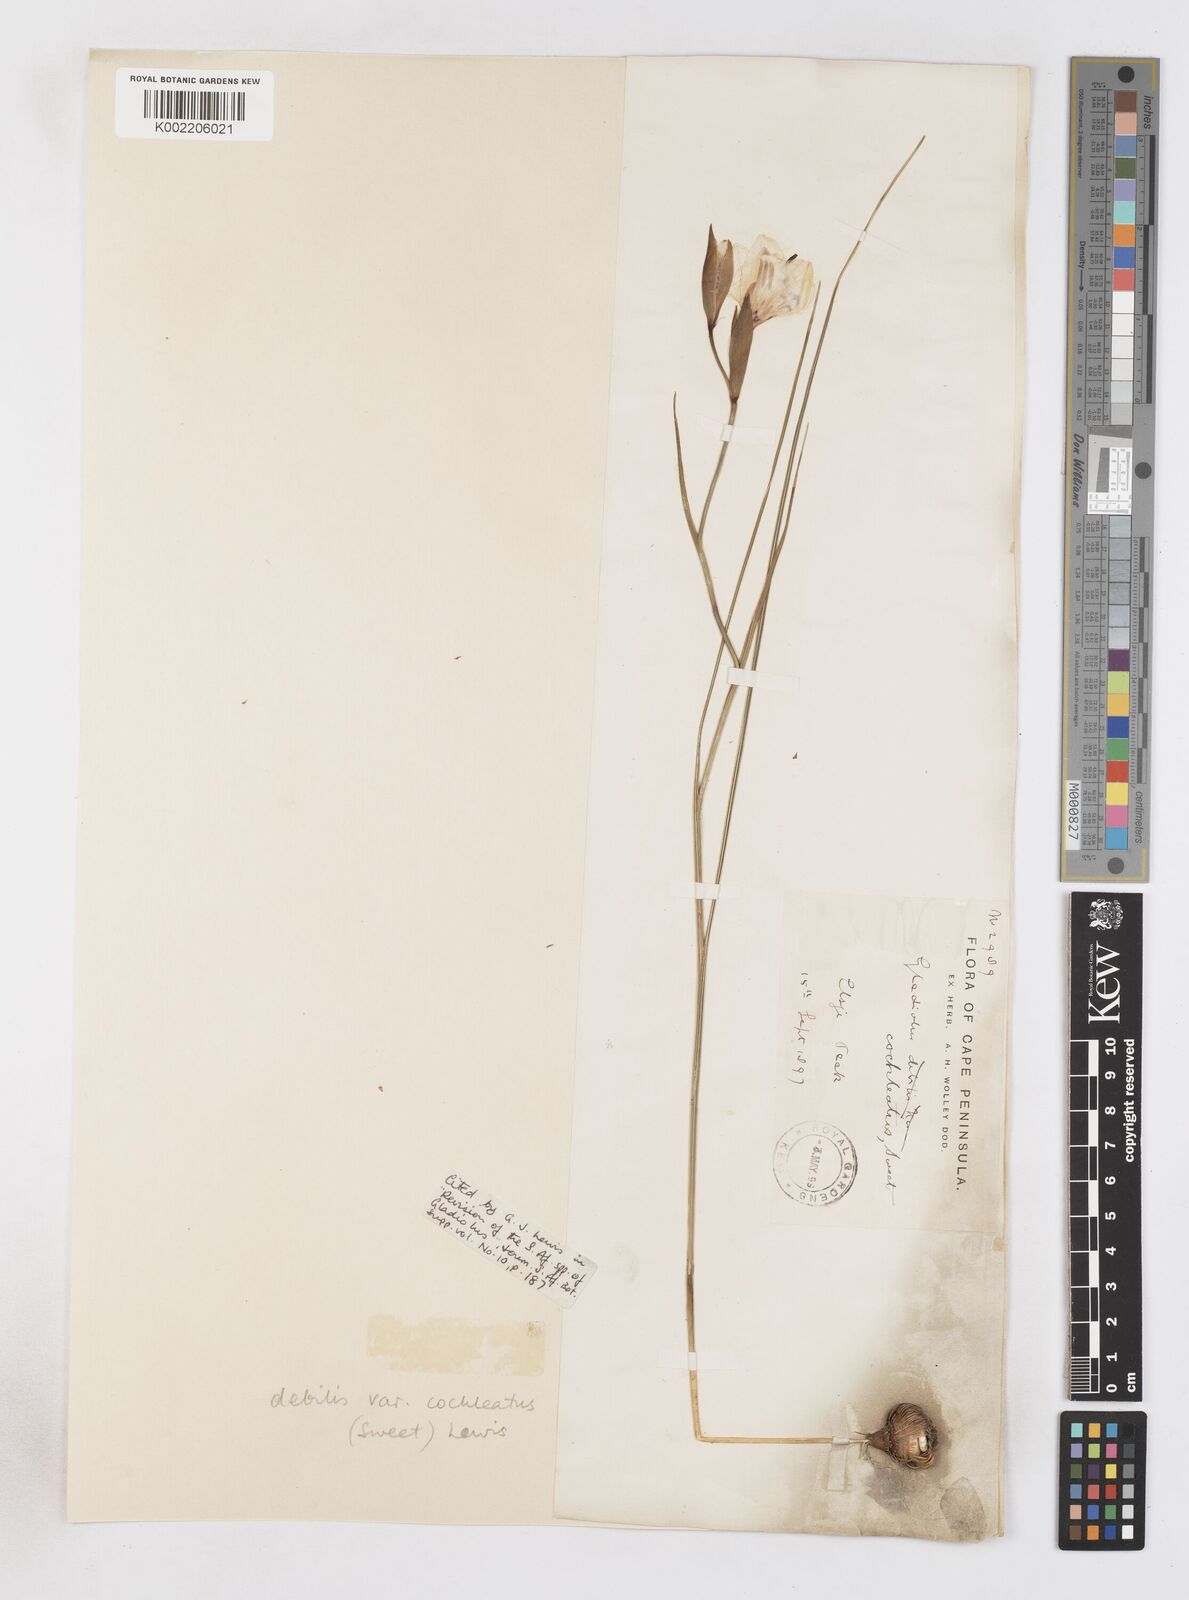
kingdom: Plantae
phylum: Tracheophyta
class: Liliopsida
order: Asparagales
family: Iridaceae
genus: Gladiolus
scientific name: Gladiolus debilis
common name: Painted-lady
